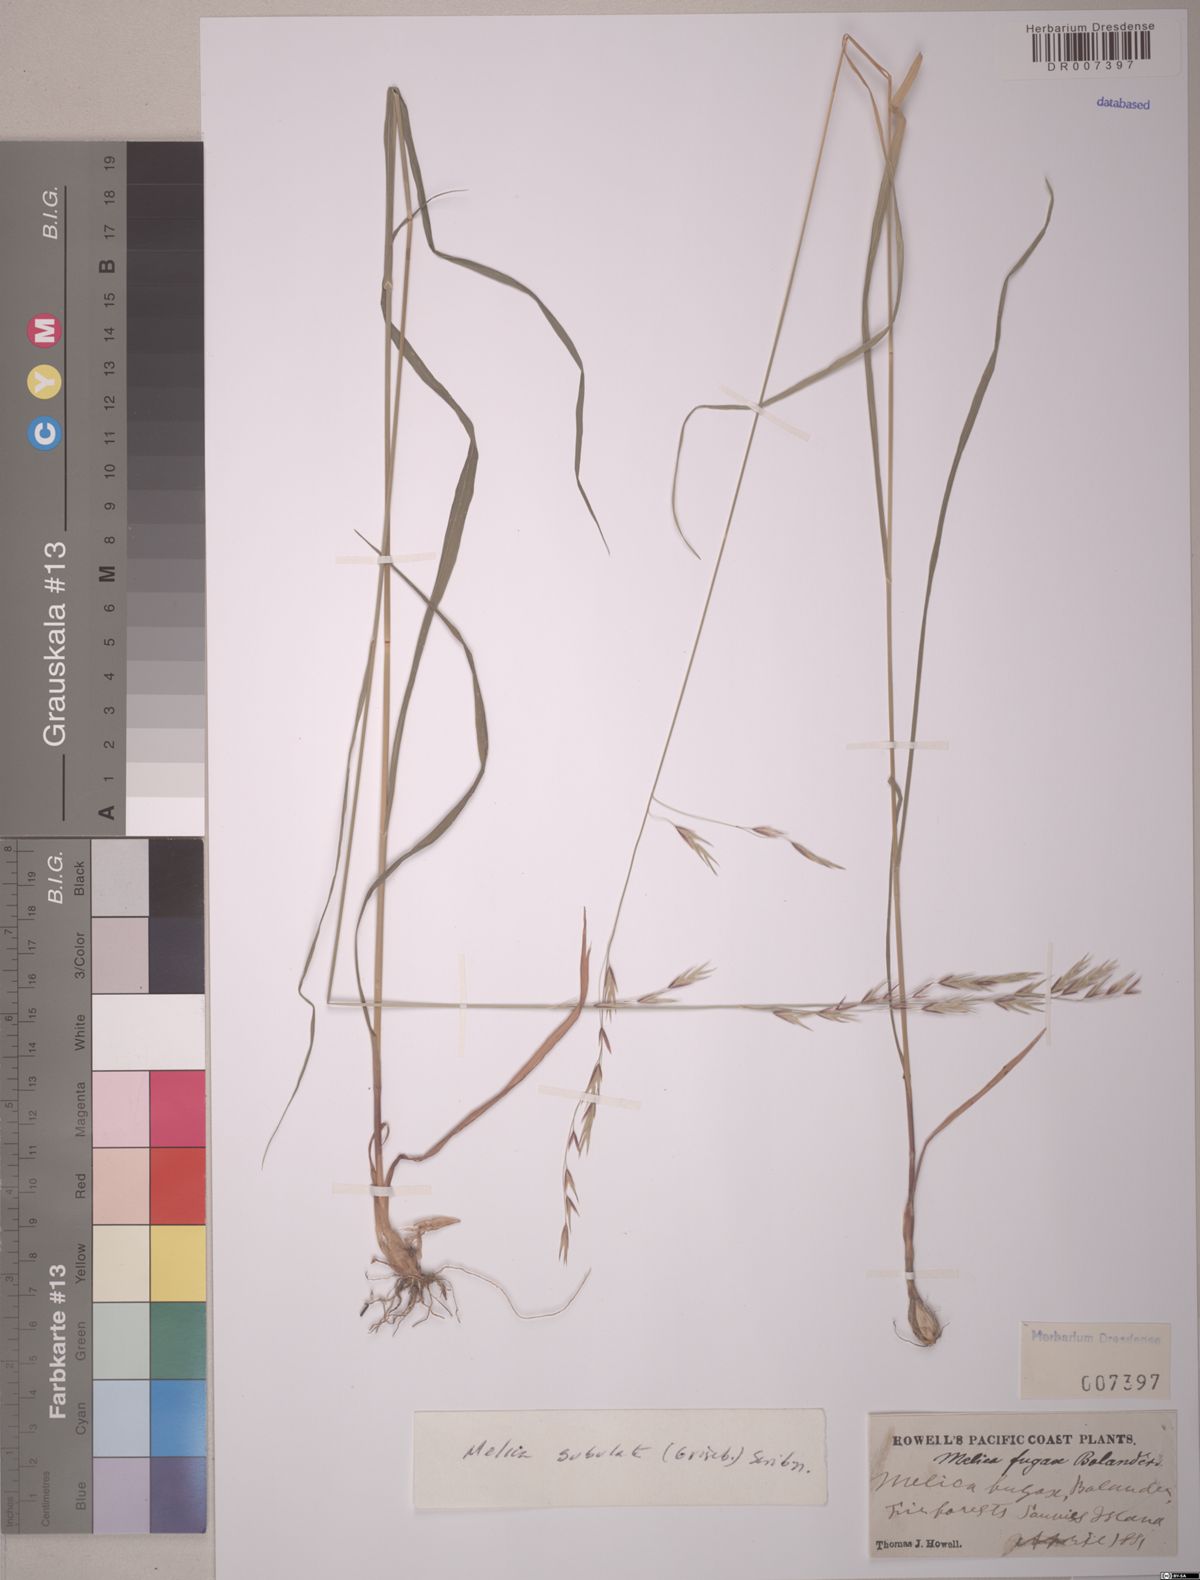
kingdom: Plantae
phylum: Tracheophyta
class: Liliopsida
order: Poales
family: Poaceae
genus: Melica
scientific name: Melica subulata
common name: Tapered oniongrass
